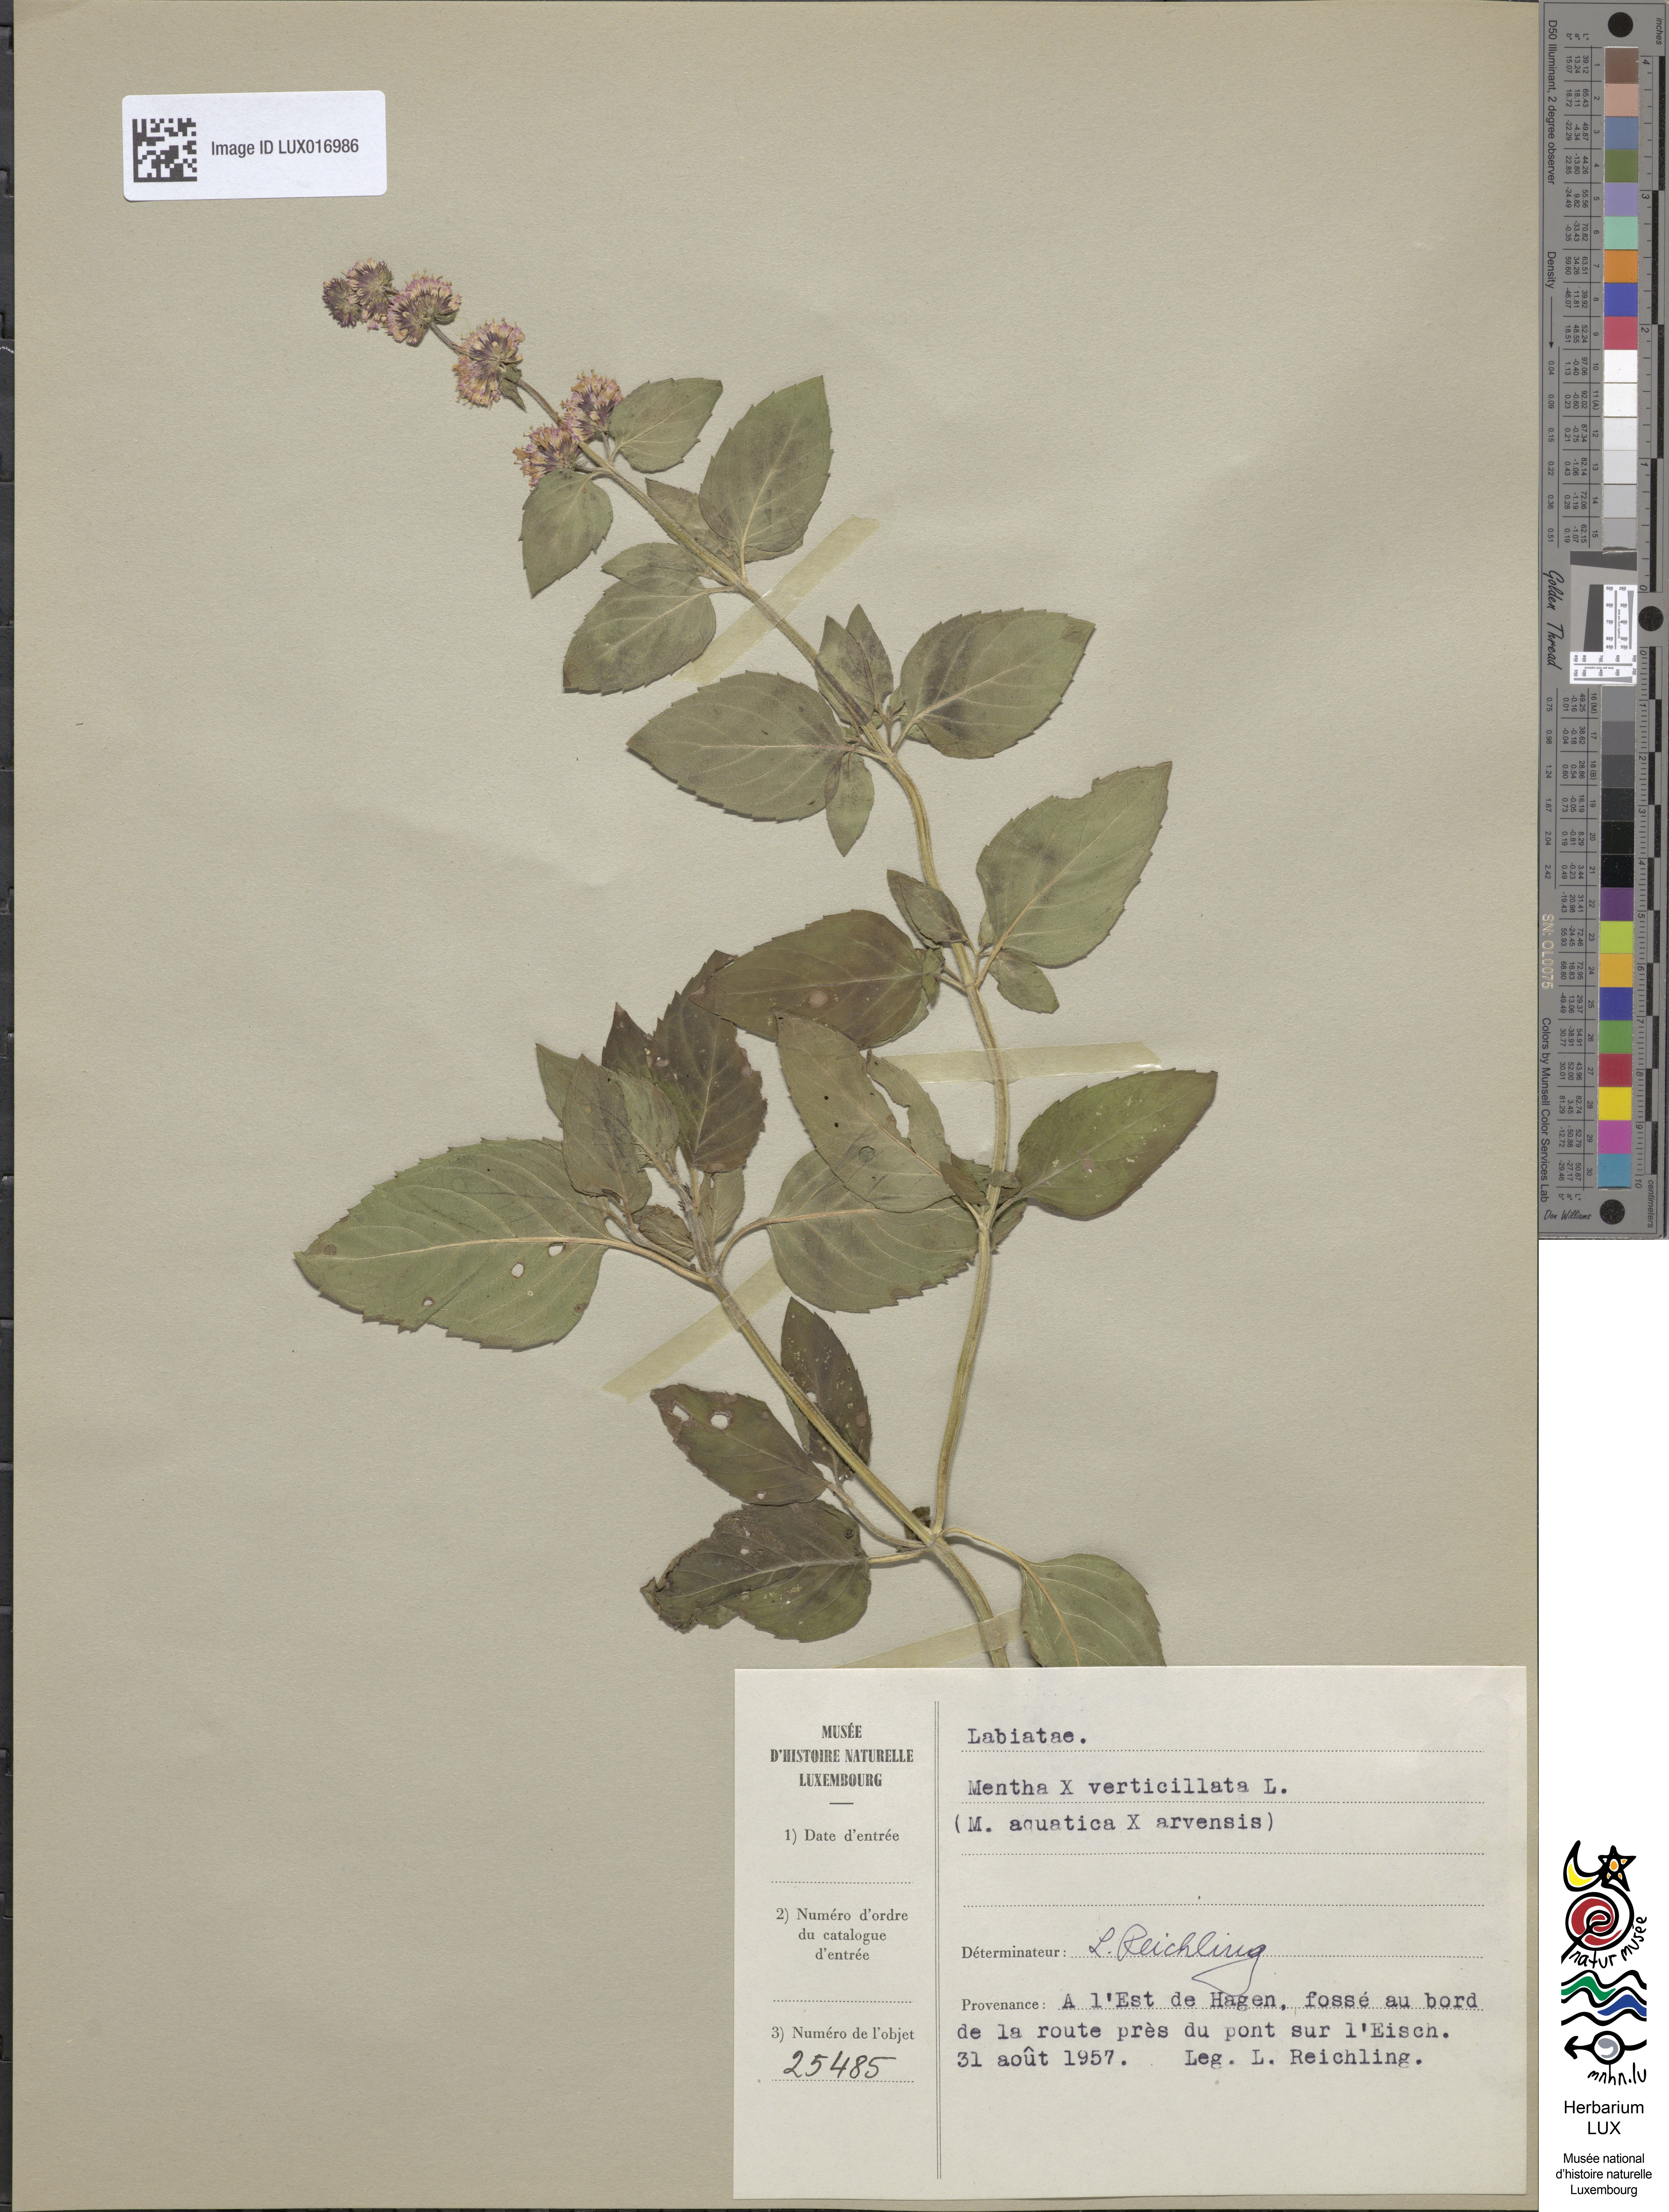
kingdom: Plantae
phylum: Tracheophyta
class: Magnoliopsida
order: Lamiales
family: Lamiaceae
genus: Mentha
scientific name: Mentha verticillata
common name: Mint
